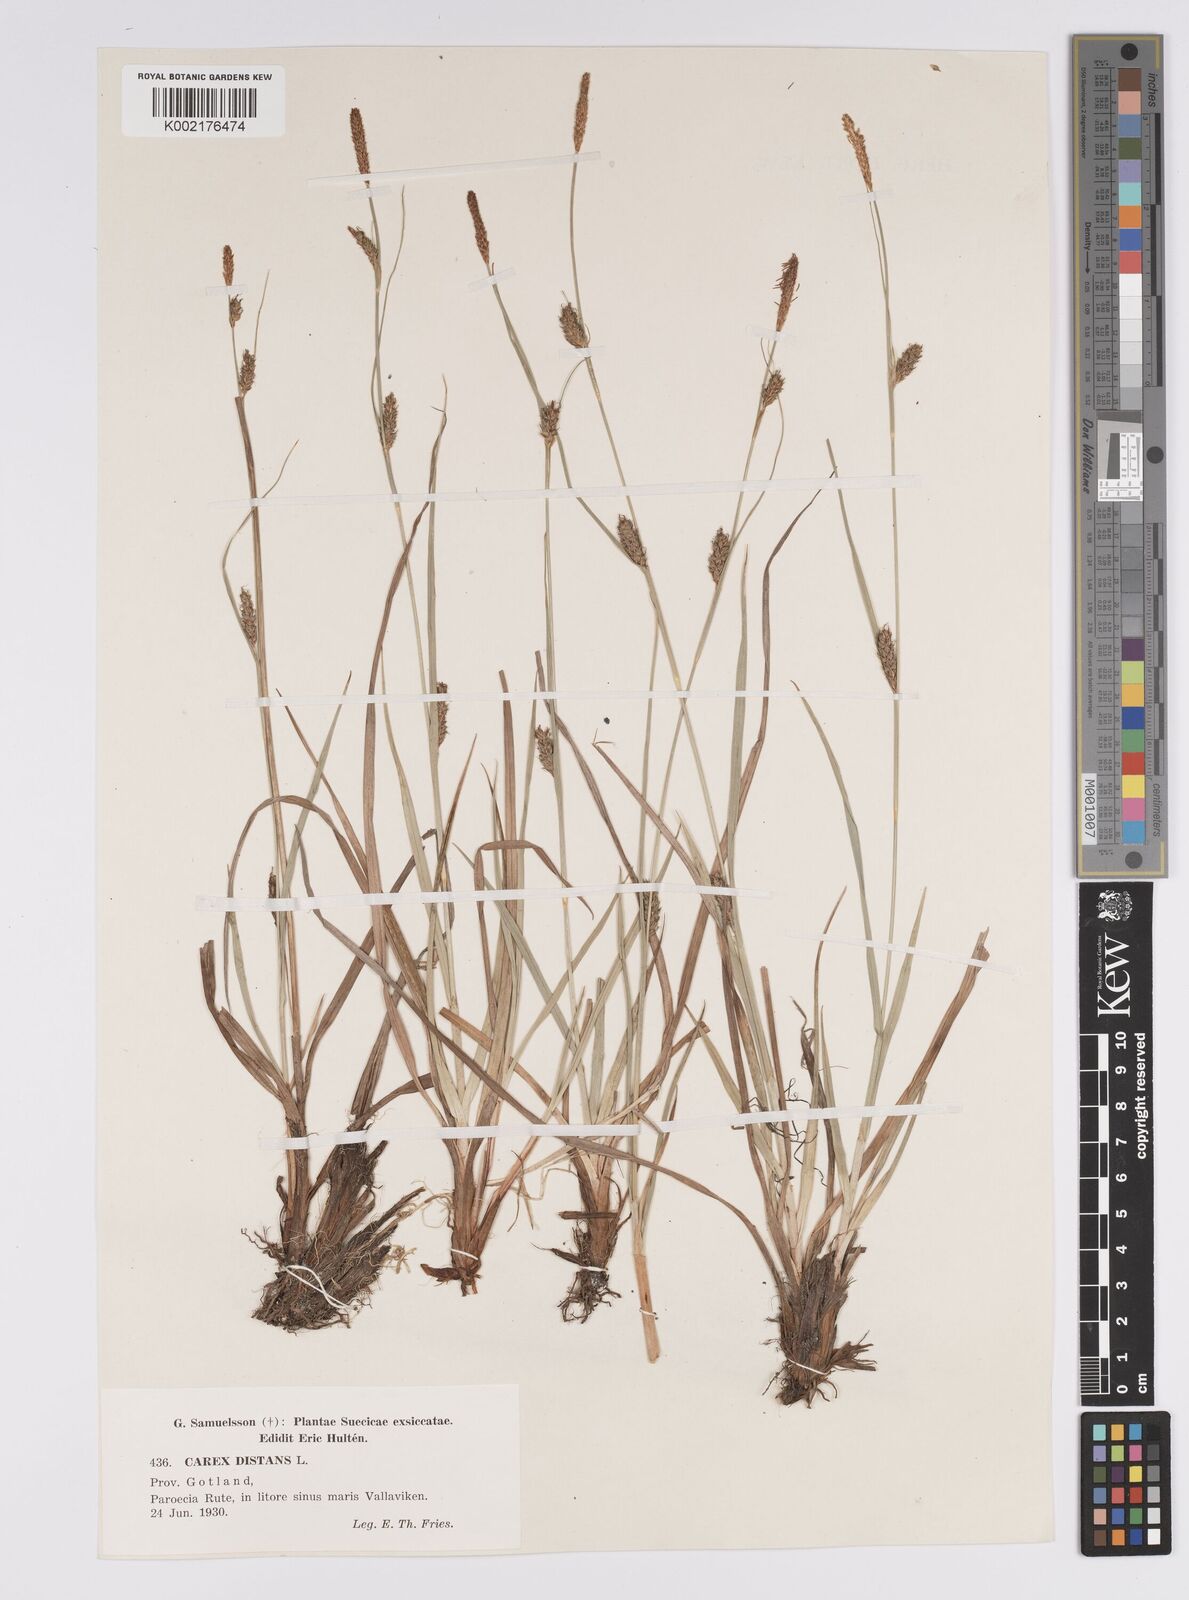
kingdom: Plantae
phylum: Tracheophyta
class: Liliopsida
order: Poales
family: Cyperaceae
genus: Carex
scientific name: Carex distans
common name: Distant sedge
